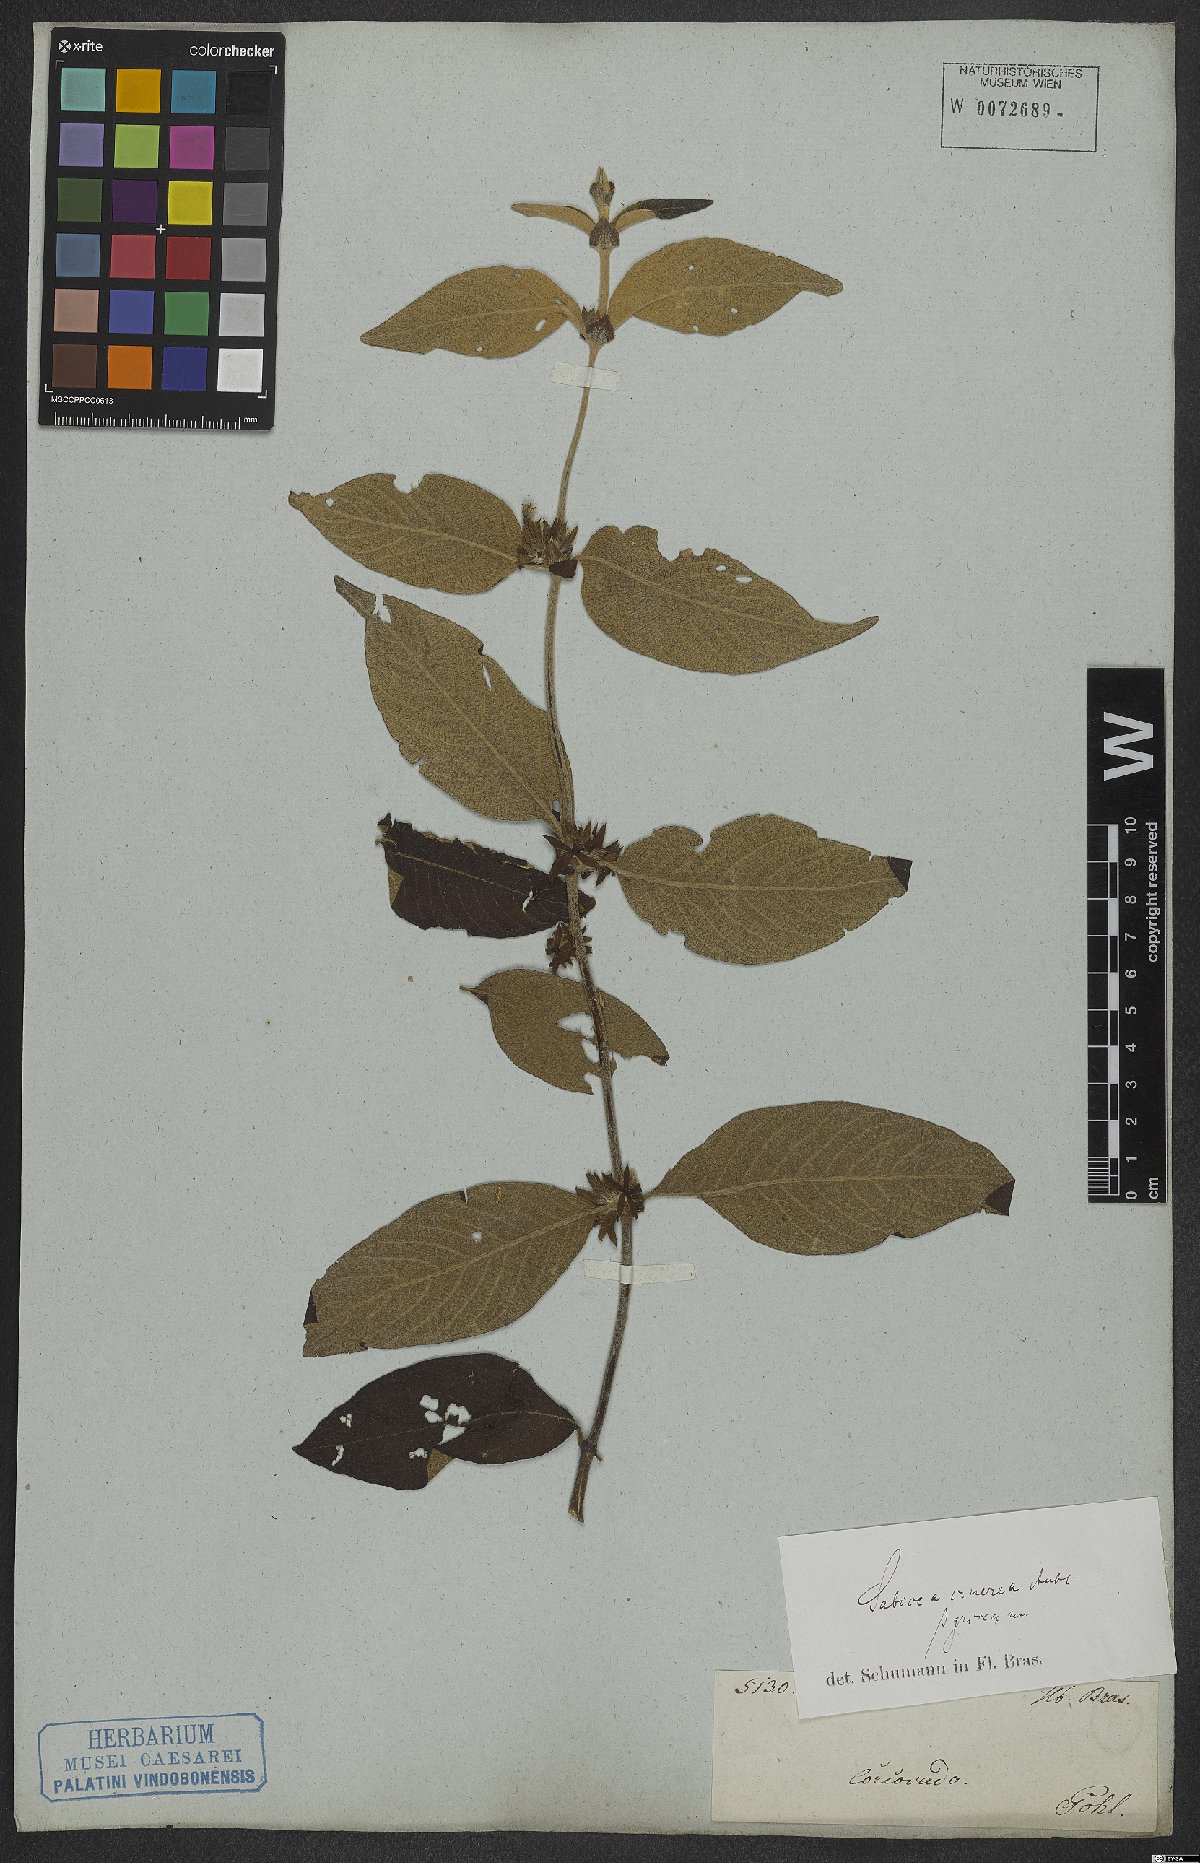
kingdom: Plantae
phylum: Tracheophyta
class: Magnoliopsida
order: Gentianales
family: Rubiaceae
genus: Sabicea
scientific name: Sabicea grisea
